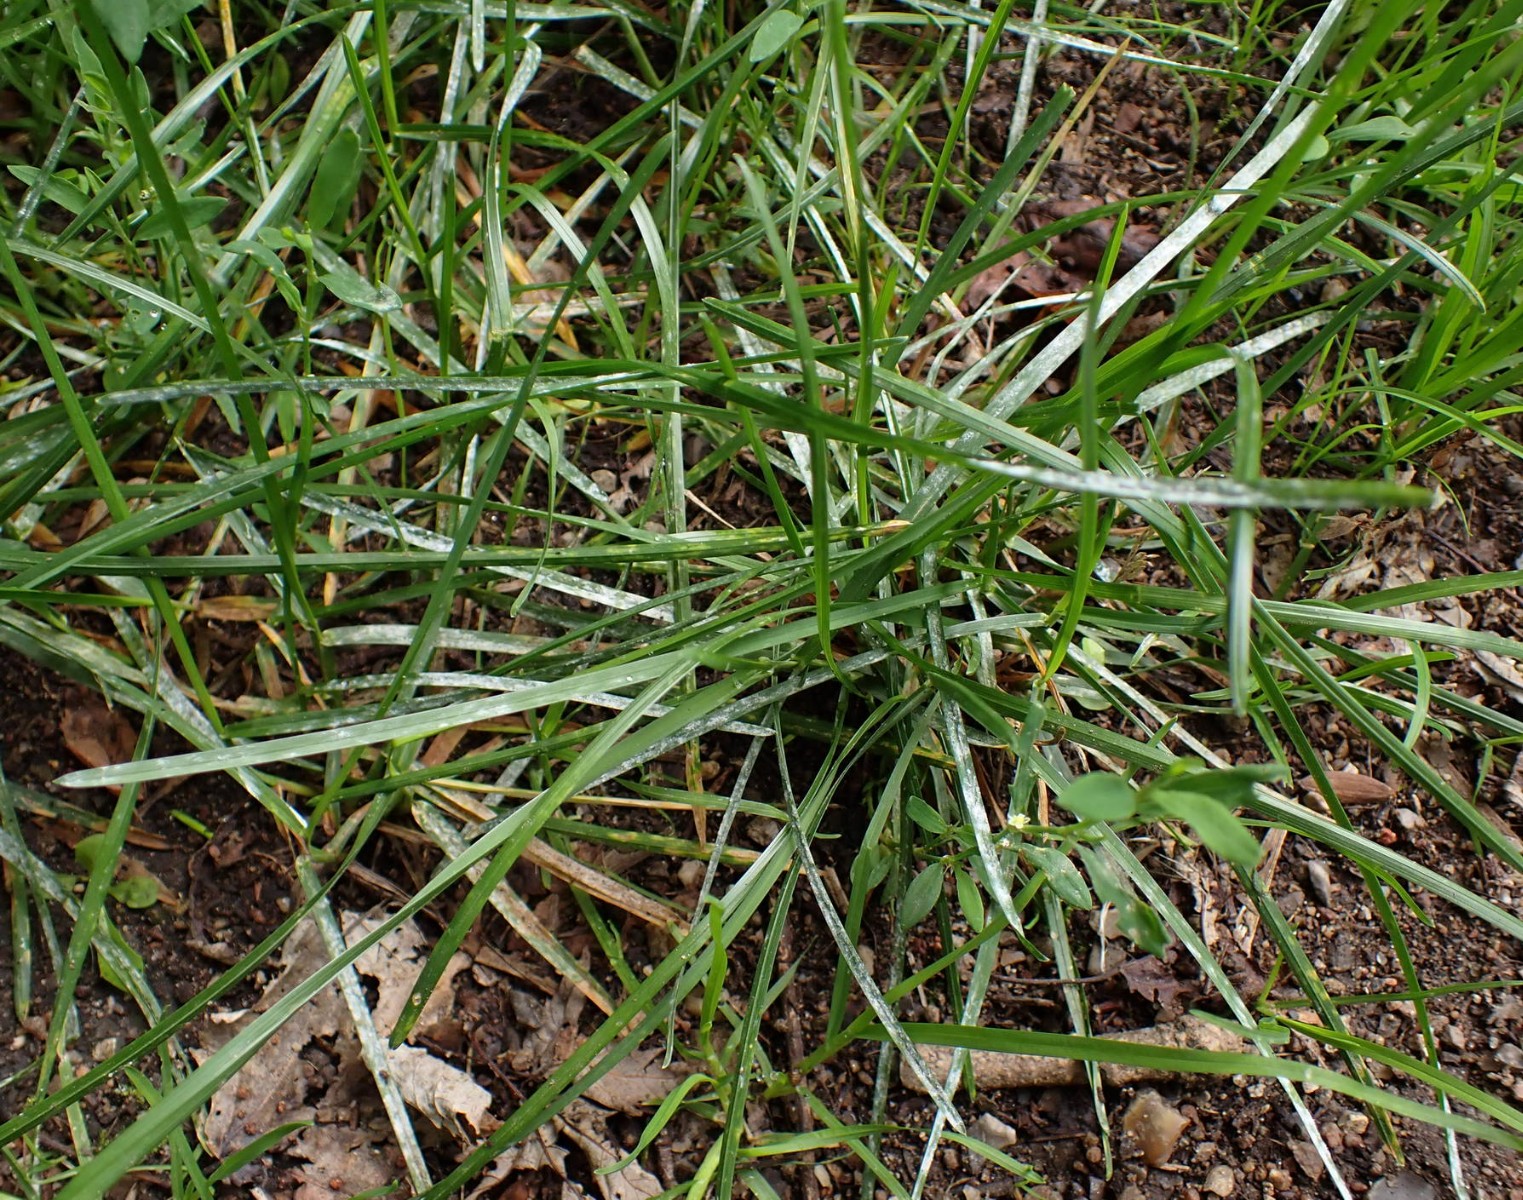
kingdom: Fungi
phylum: Ascomycota
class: Leotiomycetes
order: Helotiales
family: Erysiphaceae
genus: Blumeria
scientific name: Blumeria graminis
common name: græs-meldug
